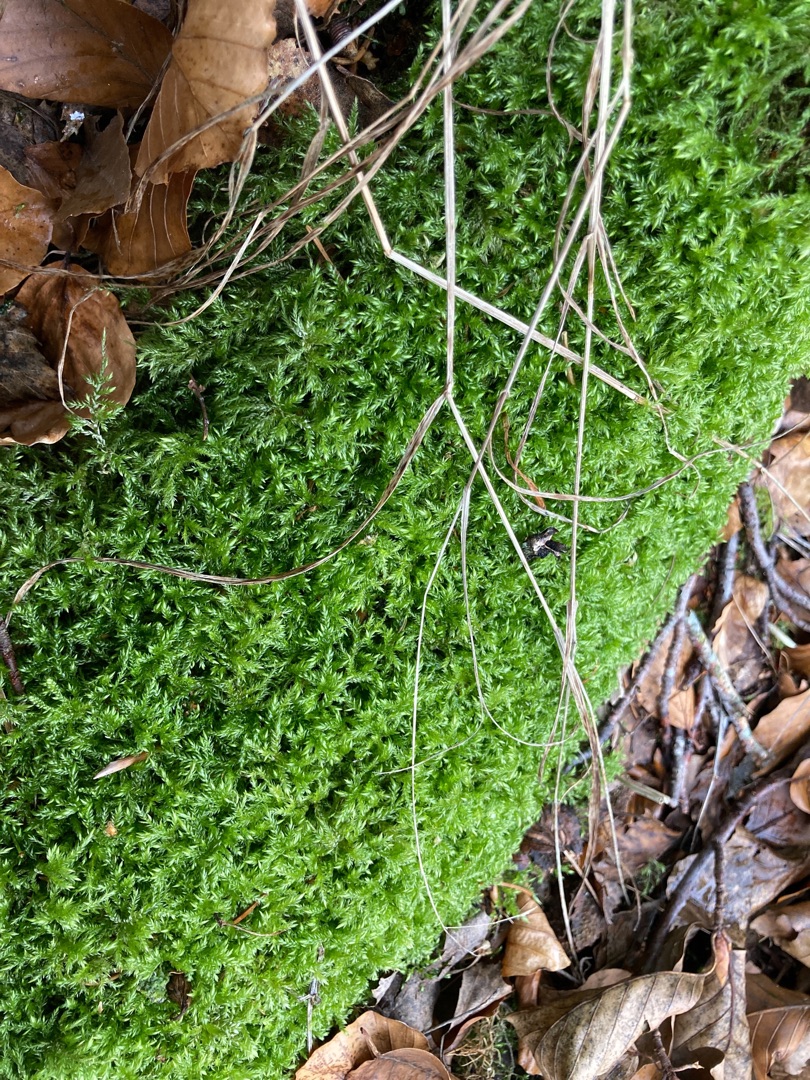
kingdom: Plantae
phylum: Bryophyta
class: Bryopsida
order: Hypnales
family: Lembophyllaceae
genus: Isothecium
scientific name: Isothecium alopecuroides
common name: Stor stammemos
